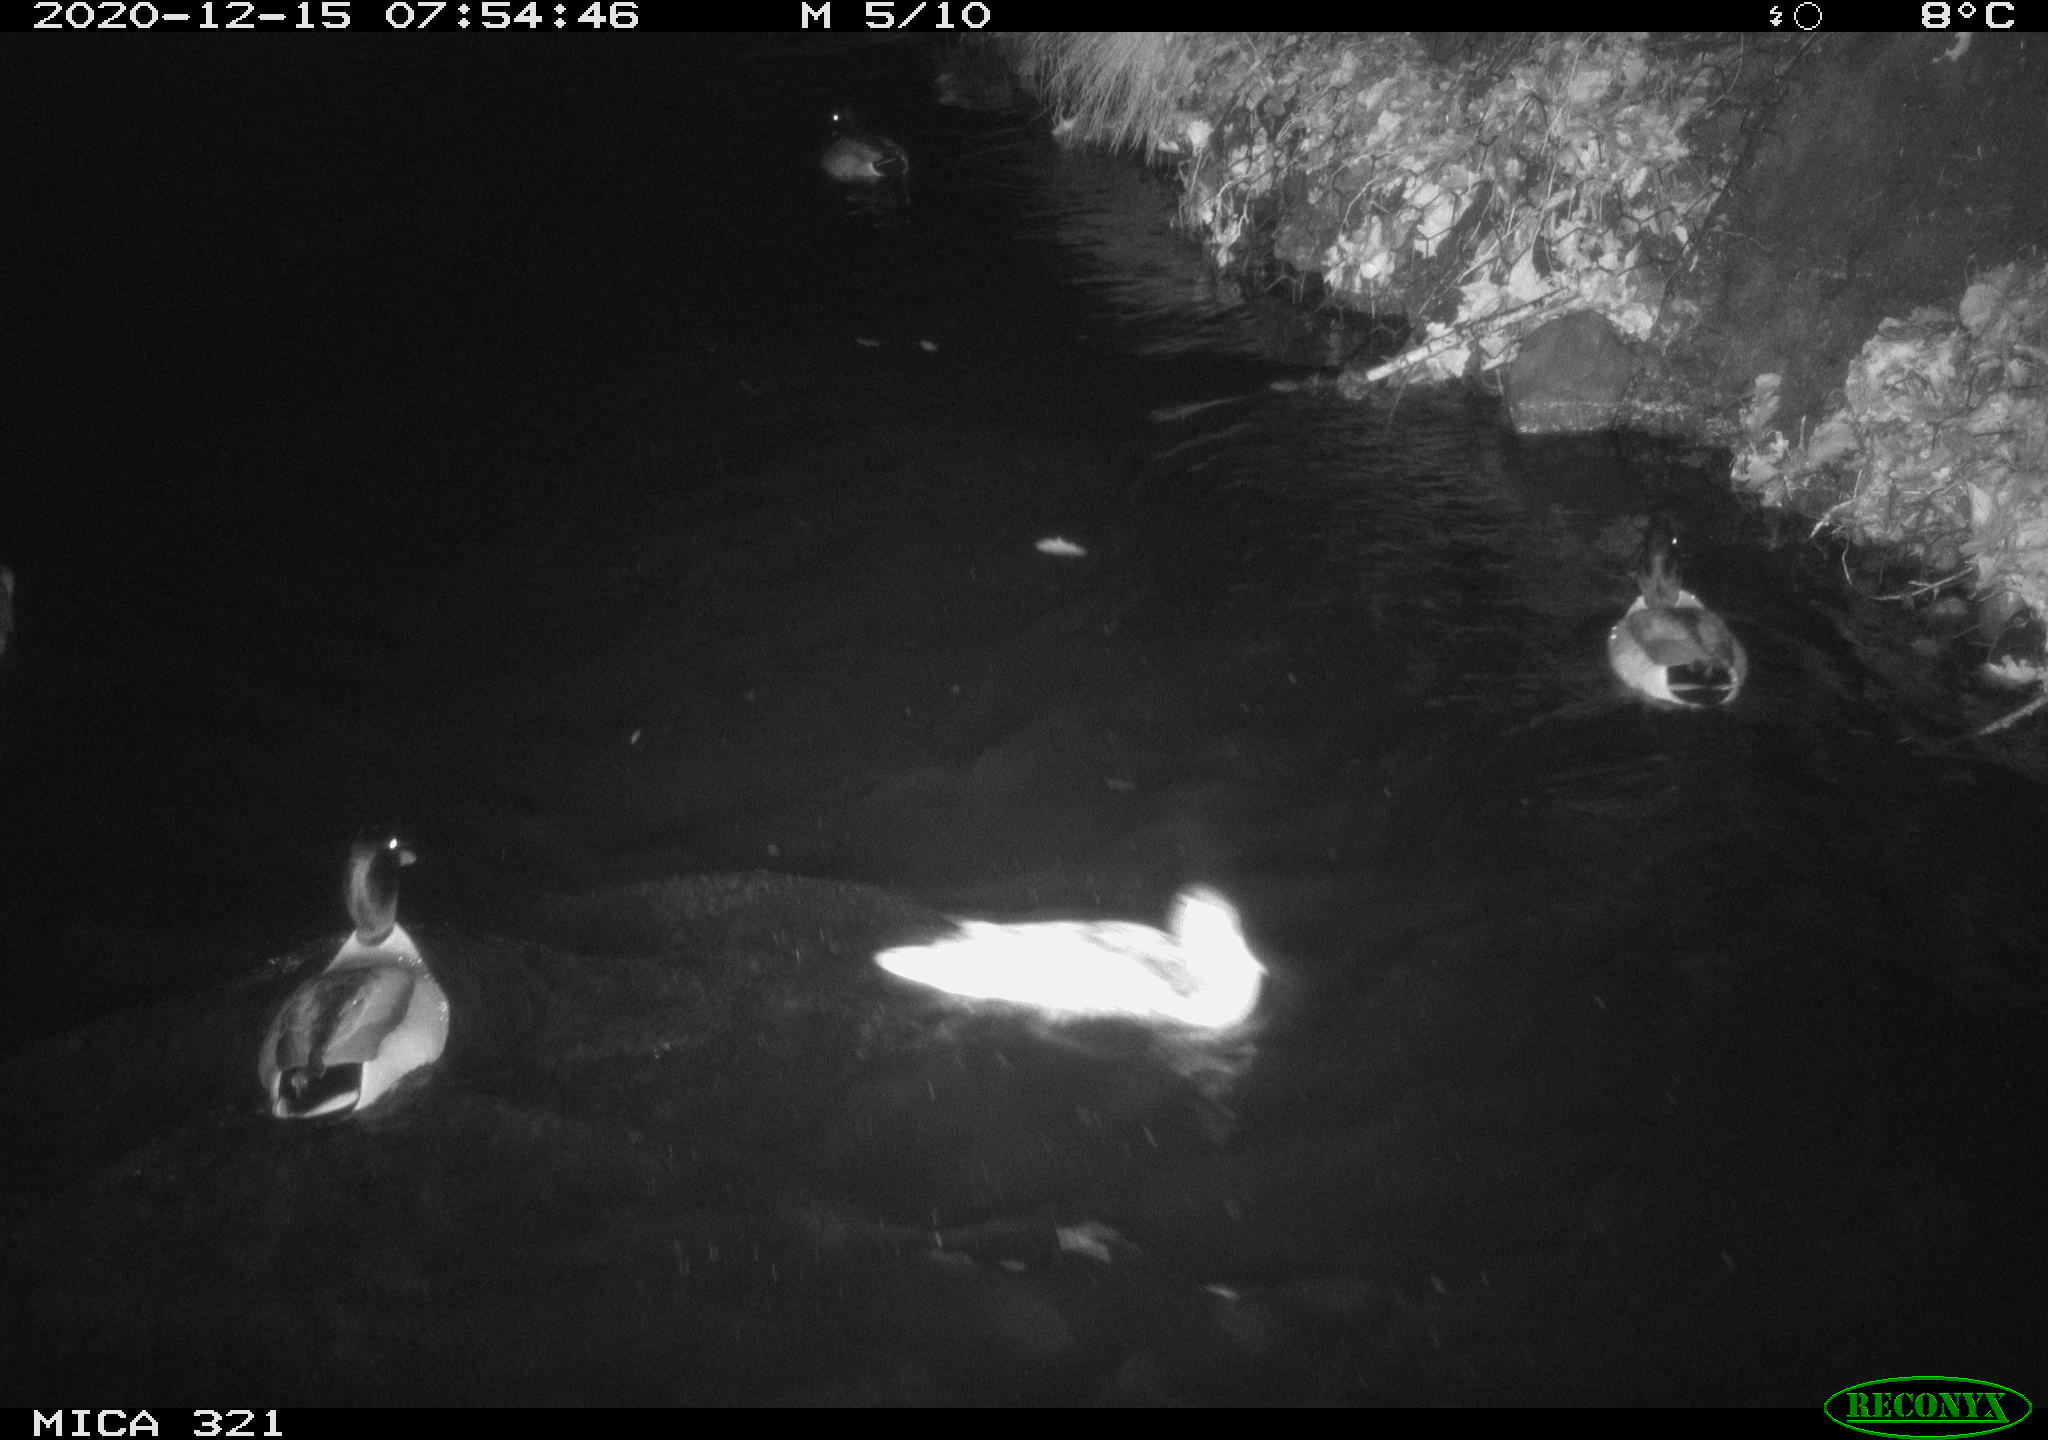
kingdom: Animalia
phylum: Chordata
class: Aves
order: Anseriformes
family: Anatidae
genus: Anas
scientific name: Anas platyrhynchos
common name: Mallard
